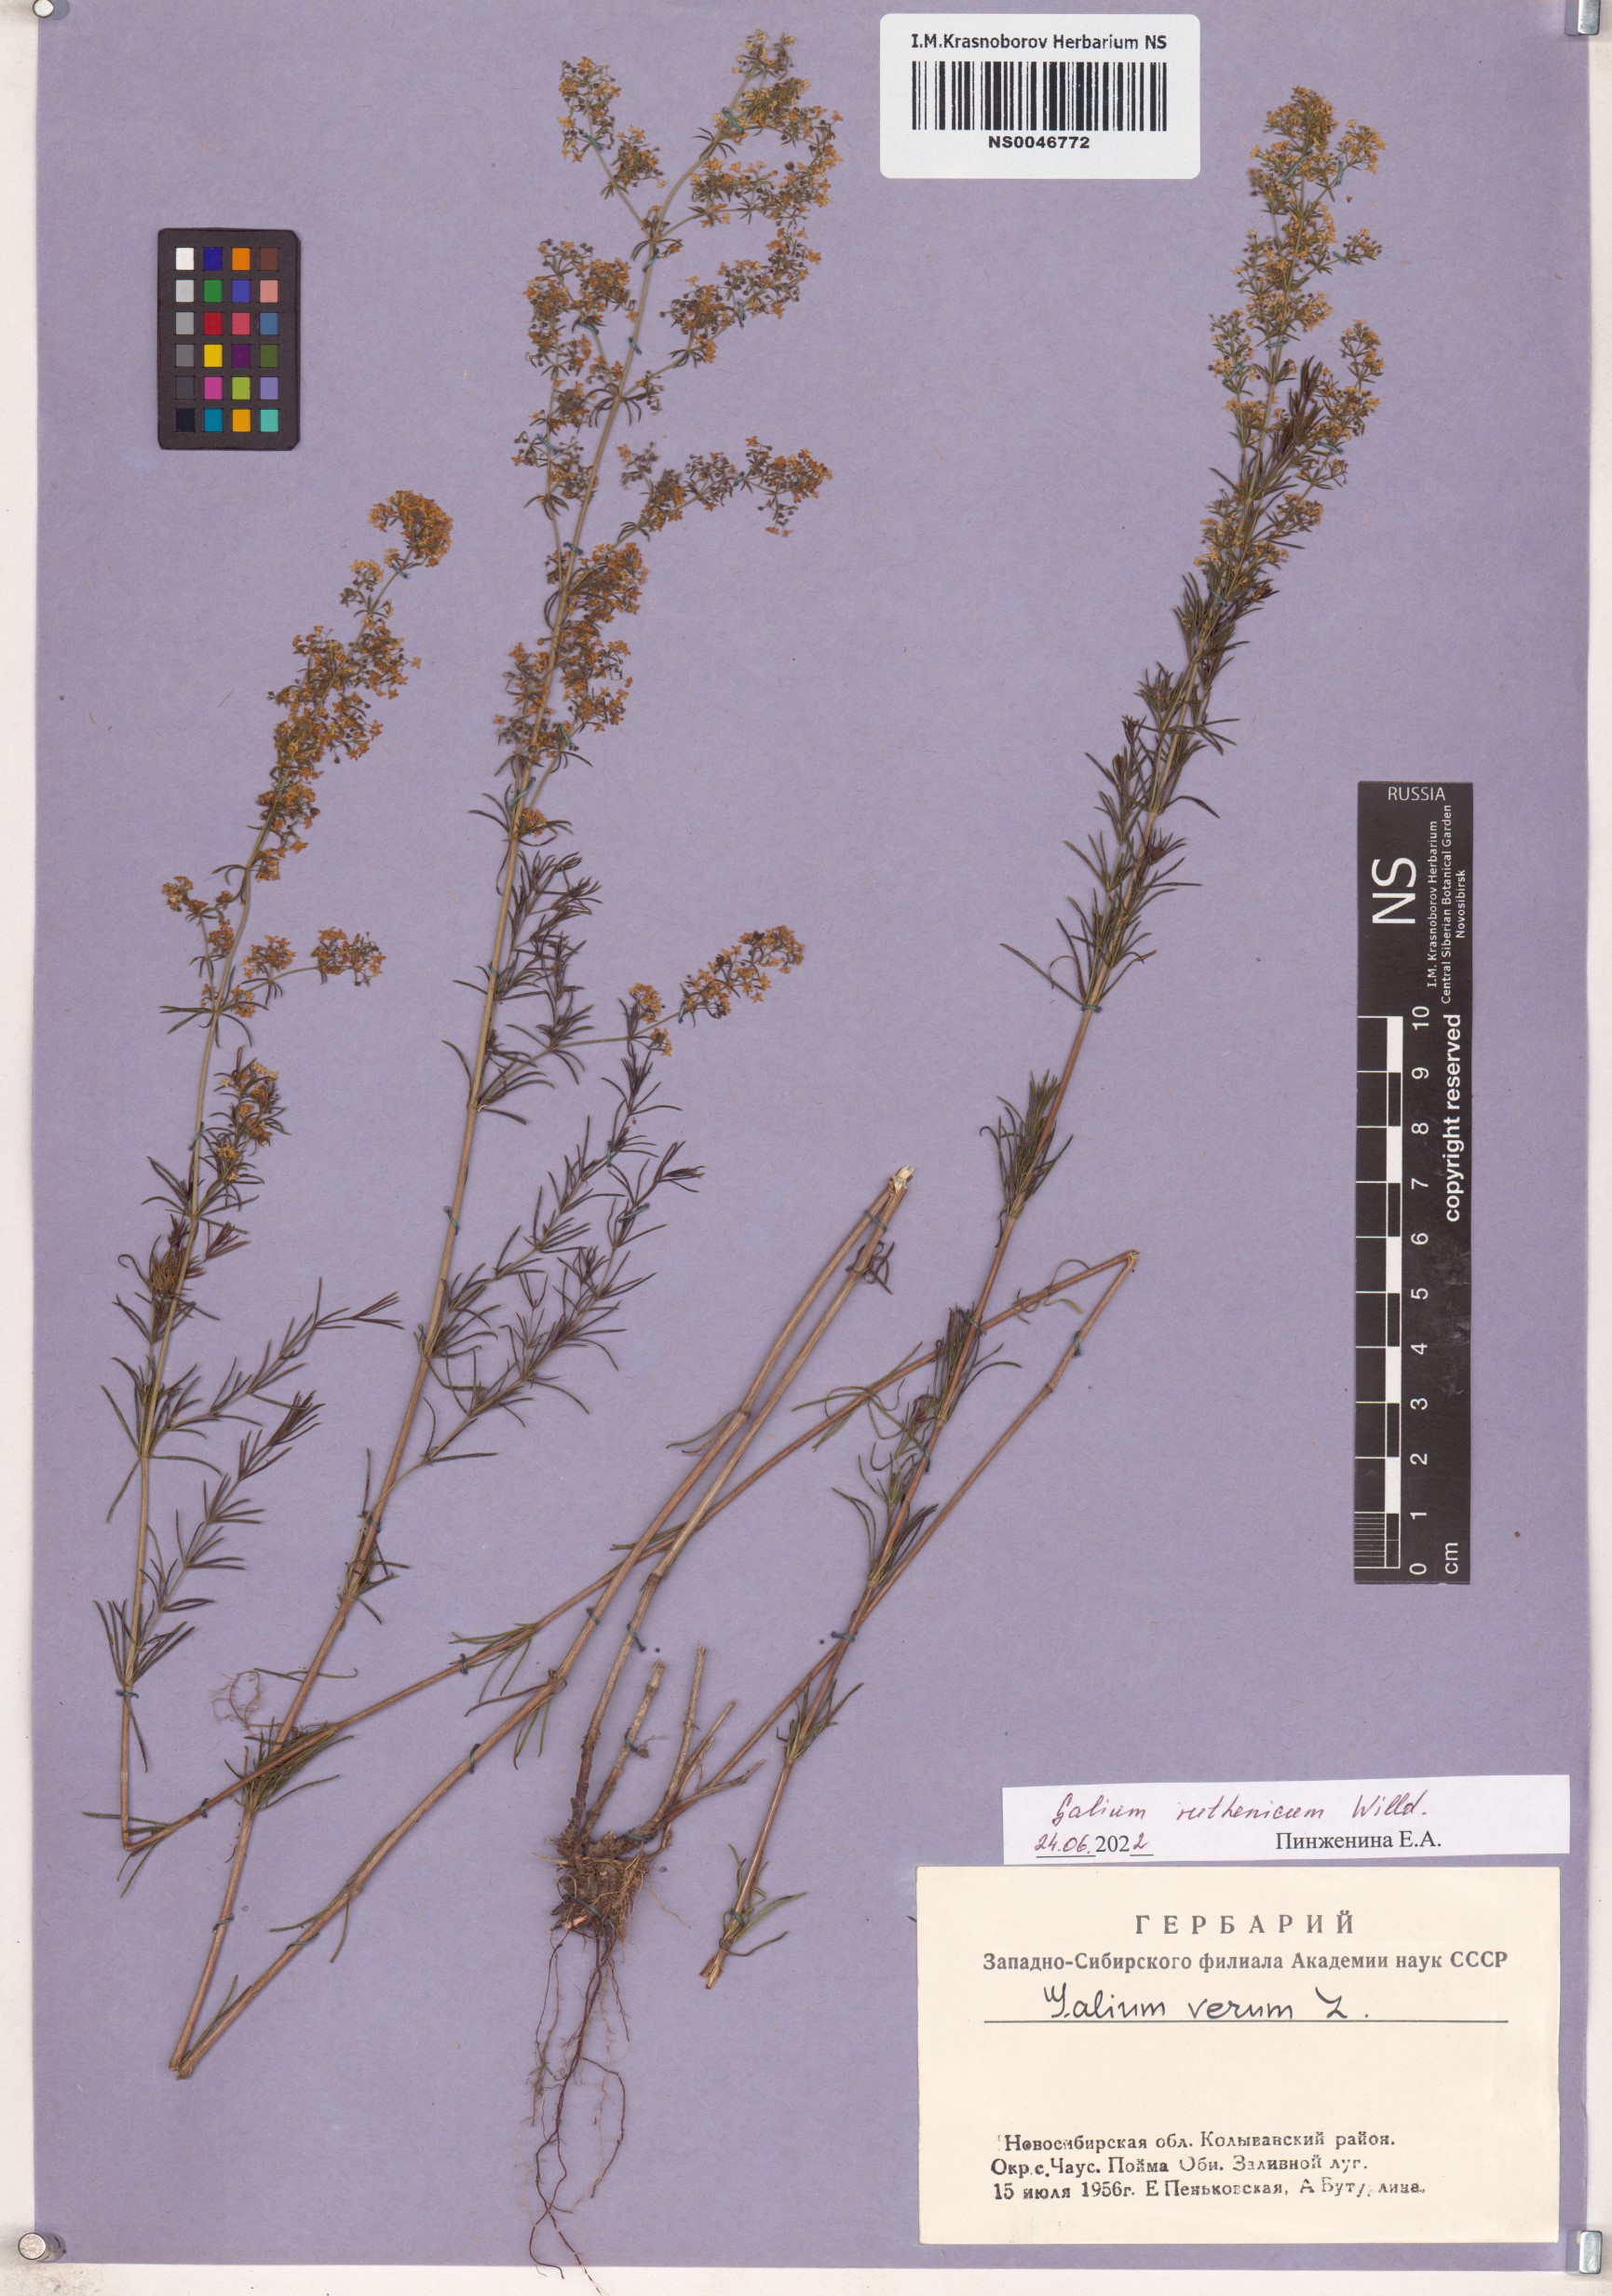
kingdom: Plantae
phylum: Tracheophyta
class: Magnoliopsida
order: Gentianales
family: Rubiaceae
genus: Galium
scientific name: Galium verum
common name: Lady's bedstraw
